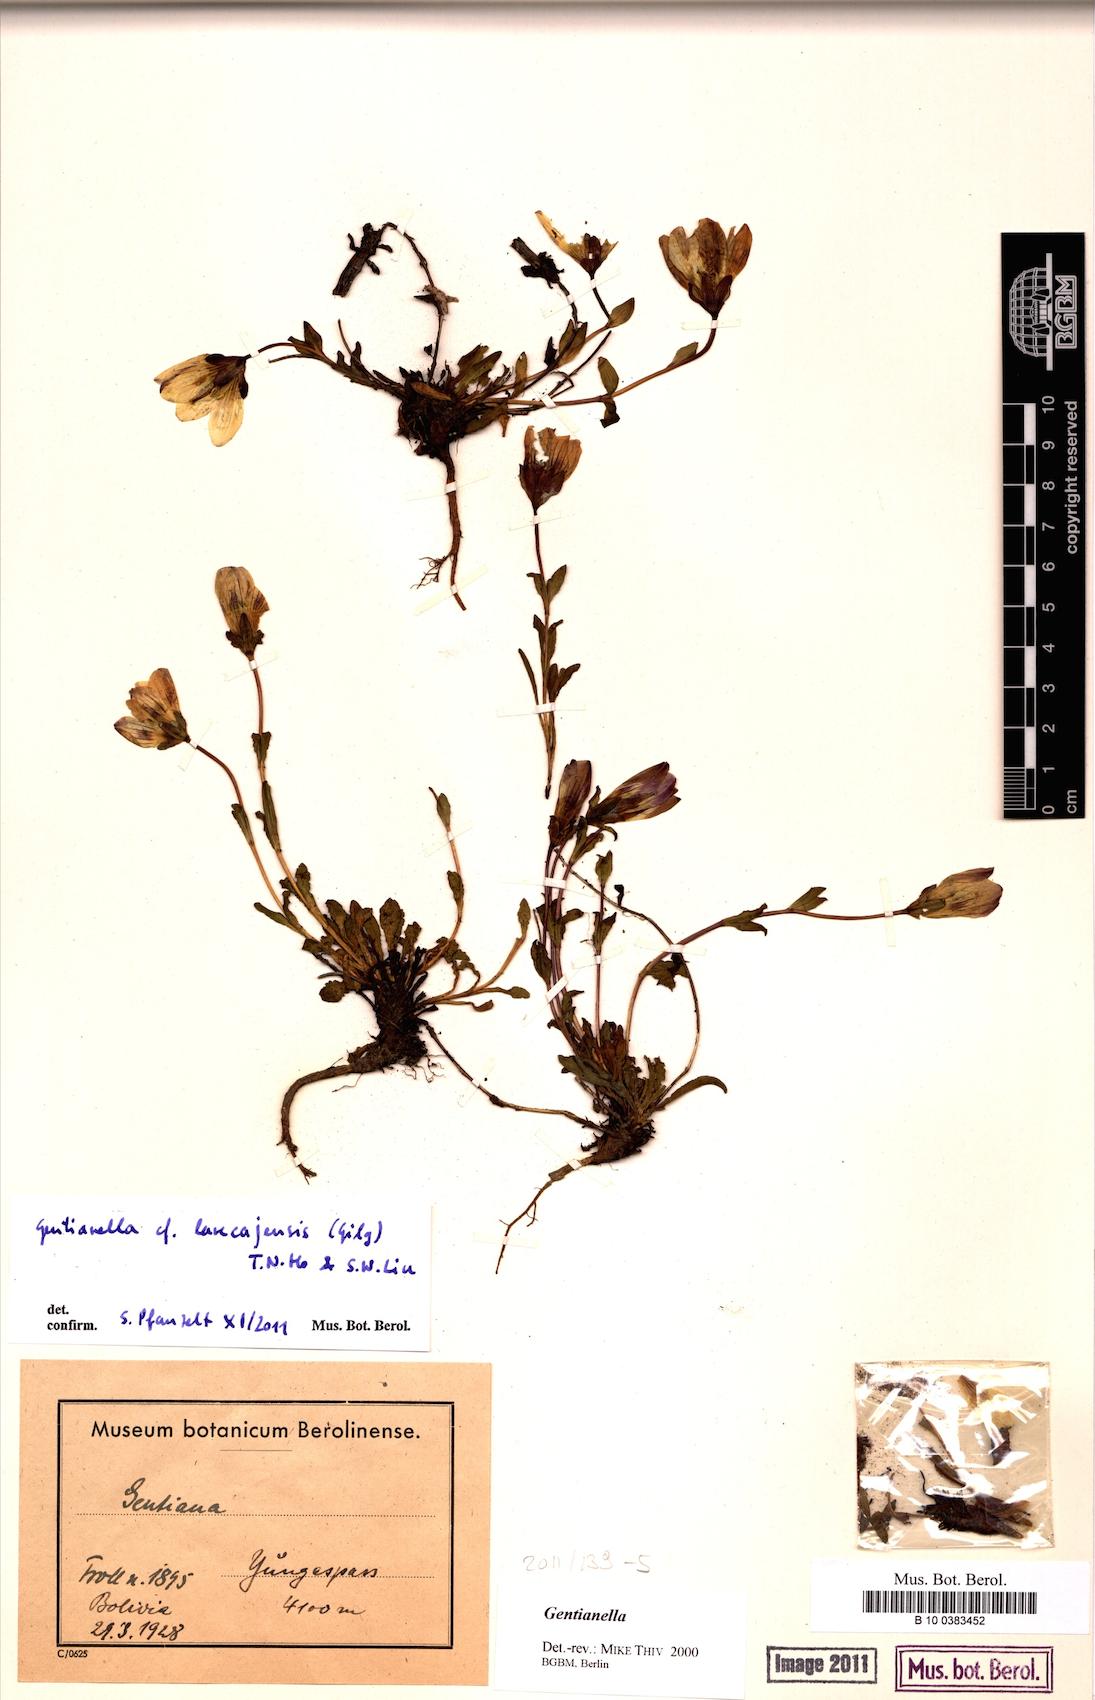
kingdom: Plantae
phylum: Tracheophyta
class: Magnoliopsida
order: Gentianales
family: Gentianaceae
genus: Gentianella
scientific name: Gentianella larecajensis
